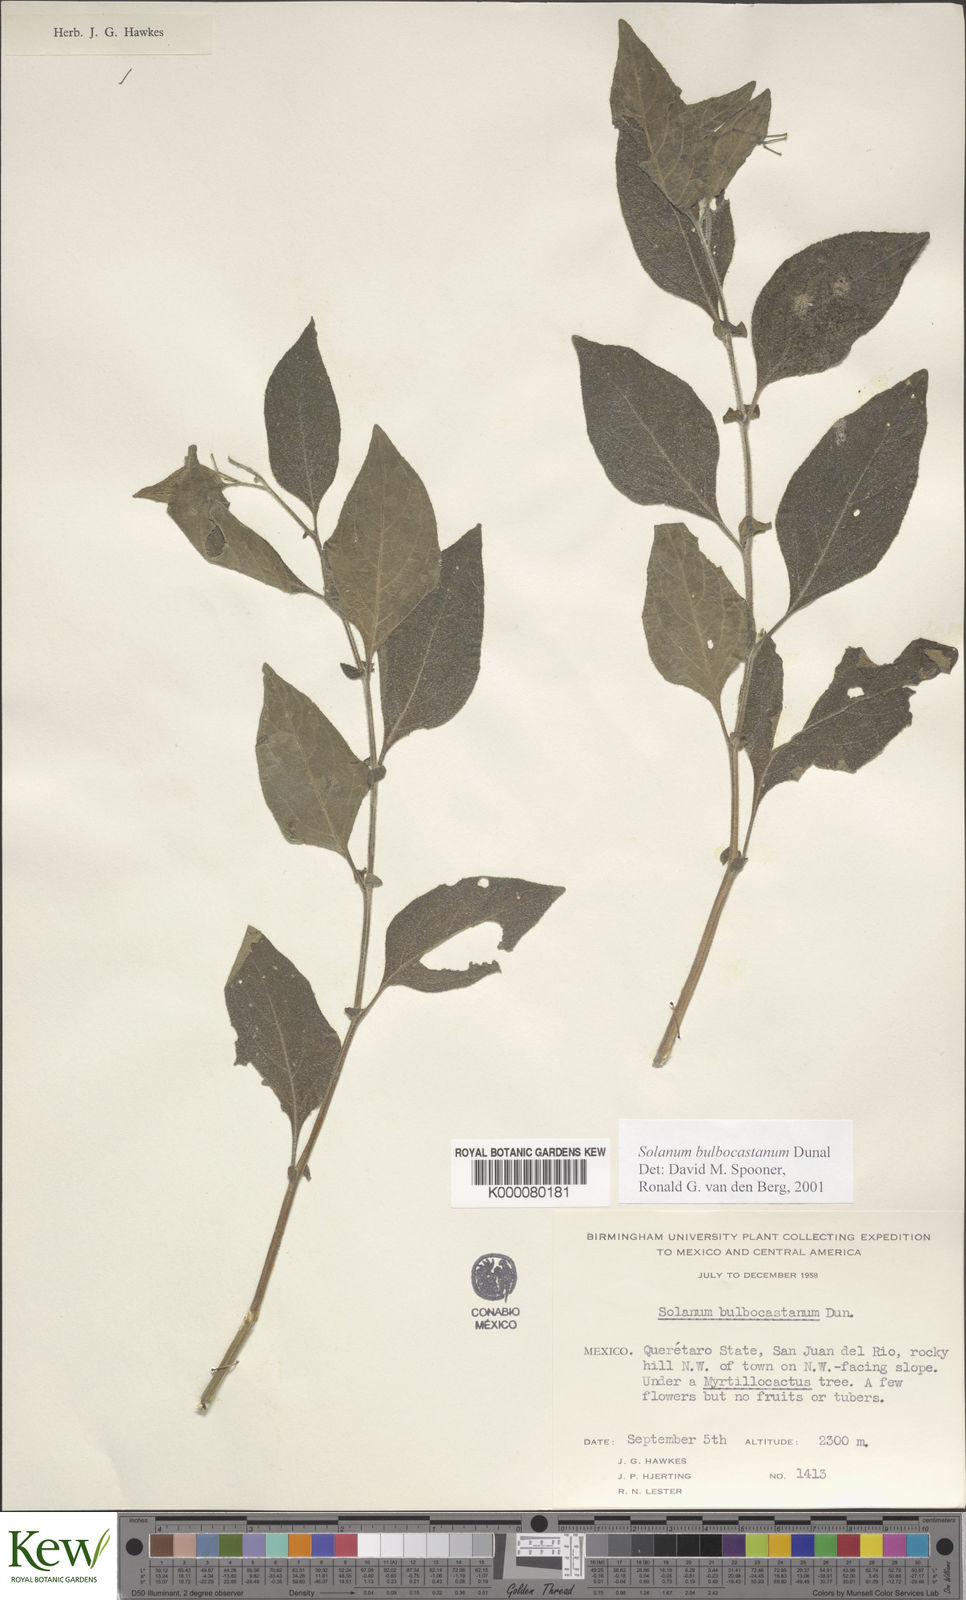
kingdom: Plantae
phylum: Tracheophyta
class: Magnoliopsida
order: Solanales
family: Solanaceae
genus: Solanum
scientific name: Solanum bulbocastanum
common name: Ornamental nightshade
